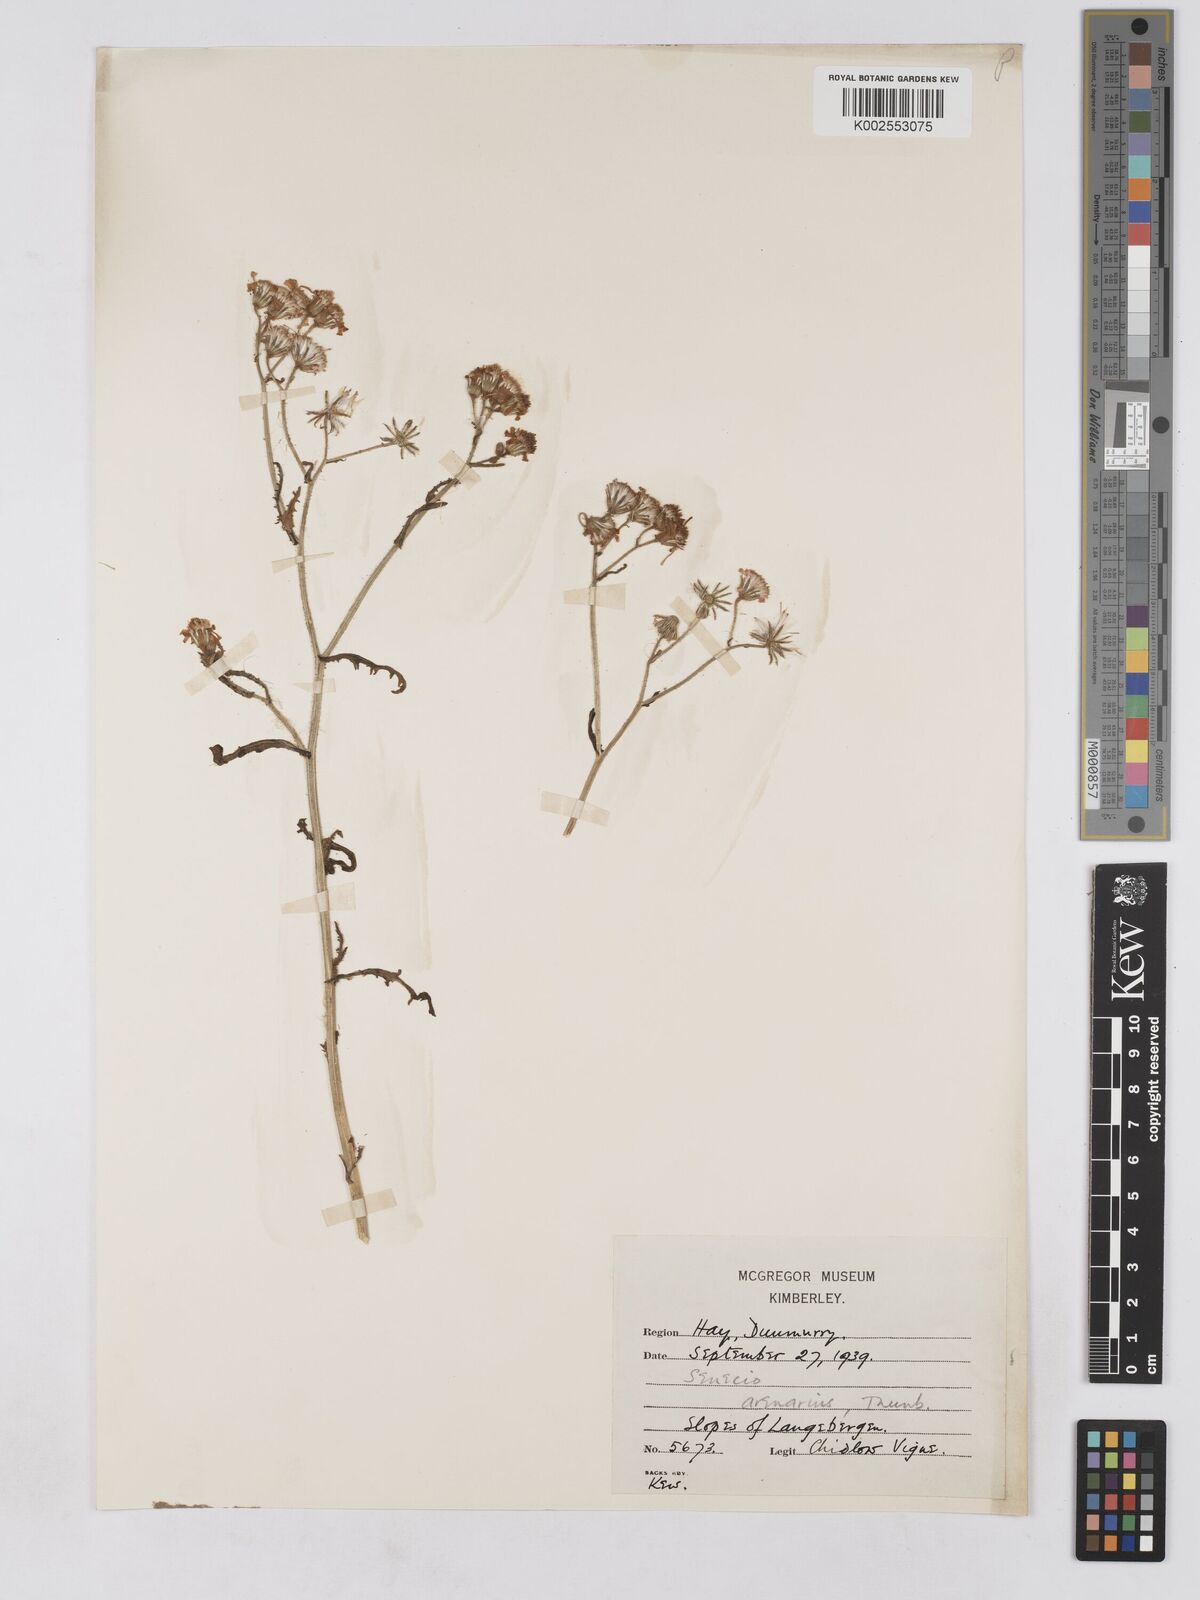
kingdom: Plantae
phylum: Tracheophyta
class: Magnoliopsida
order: Asterales
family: Asteraceae
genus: Senecio
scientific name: Senecio arenarius
